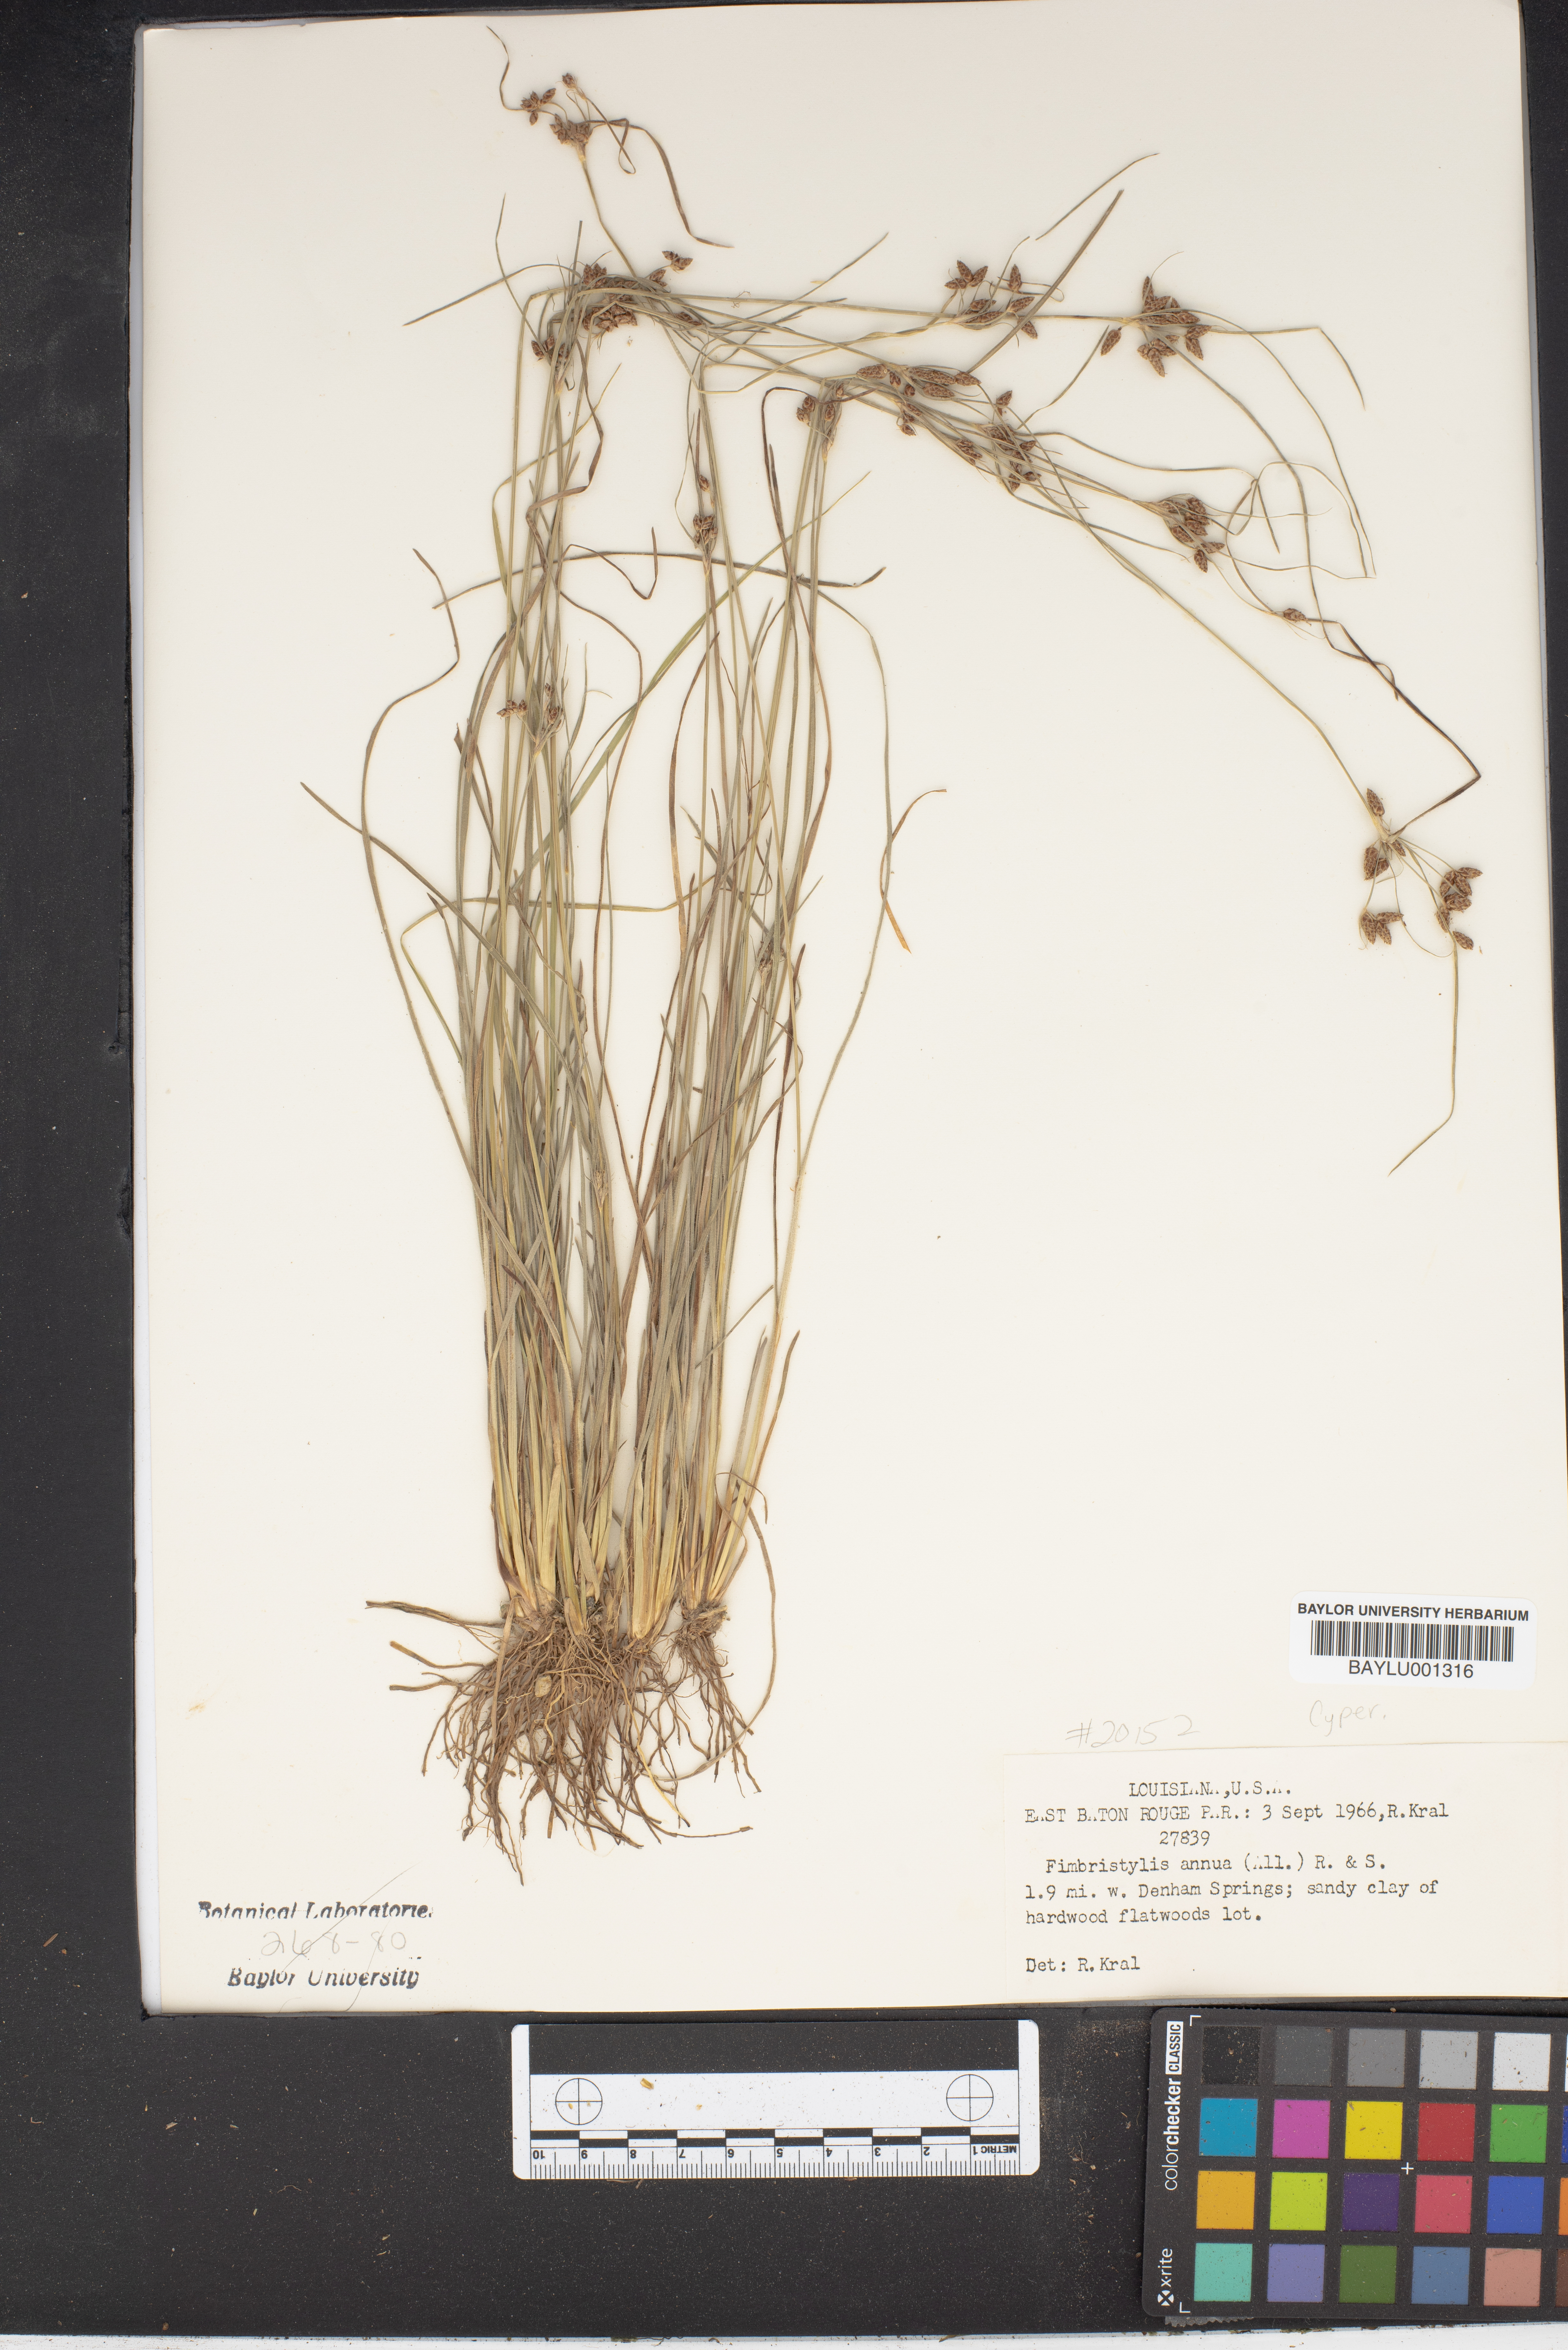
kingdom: Plantae
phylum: Tracheophyta
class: Liliopsida
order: Poales
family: Cyperaceae
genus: Fimbristylis
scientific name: Fimbristylis dichotoma
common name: Forked fimbry
